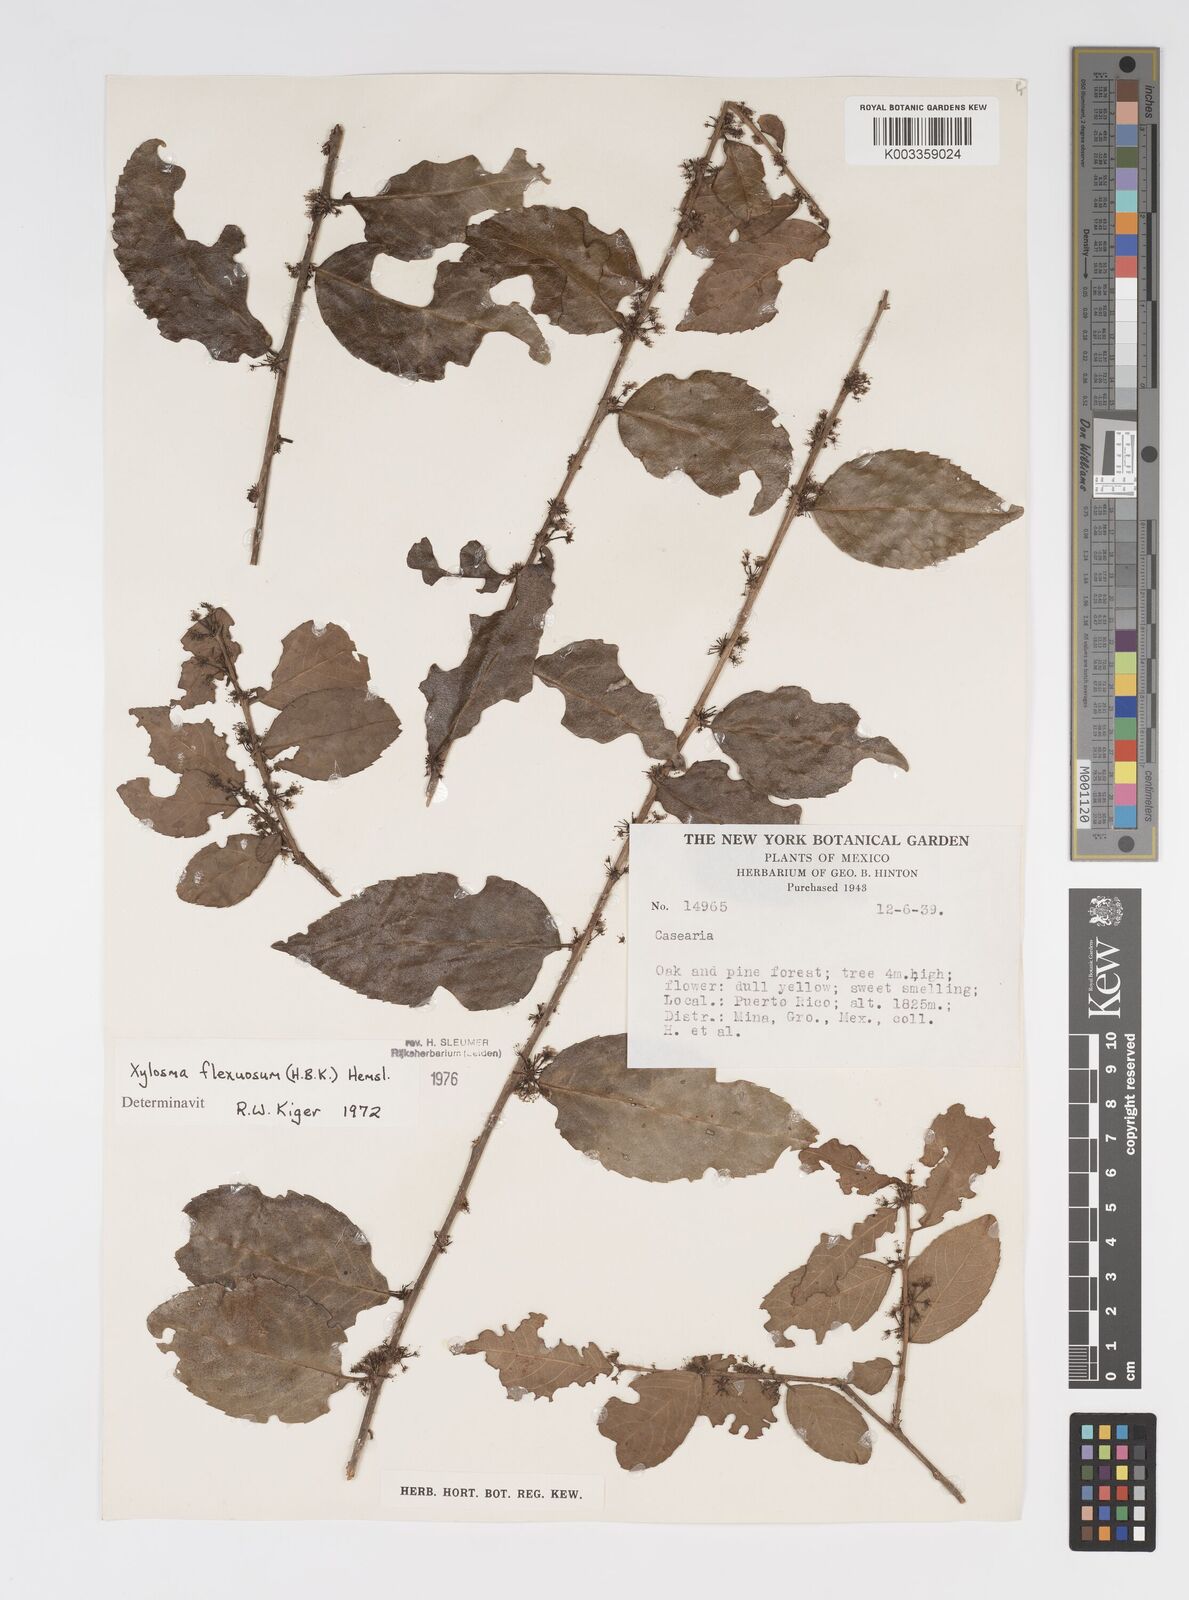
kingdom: Plantae
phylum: Tracheophyta
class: Magnoliopsida
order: Malpighiales
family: Salicaceae
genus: Xylosma
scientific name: Xylosma flexuosa
